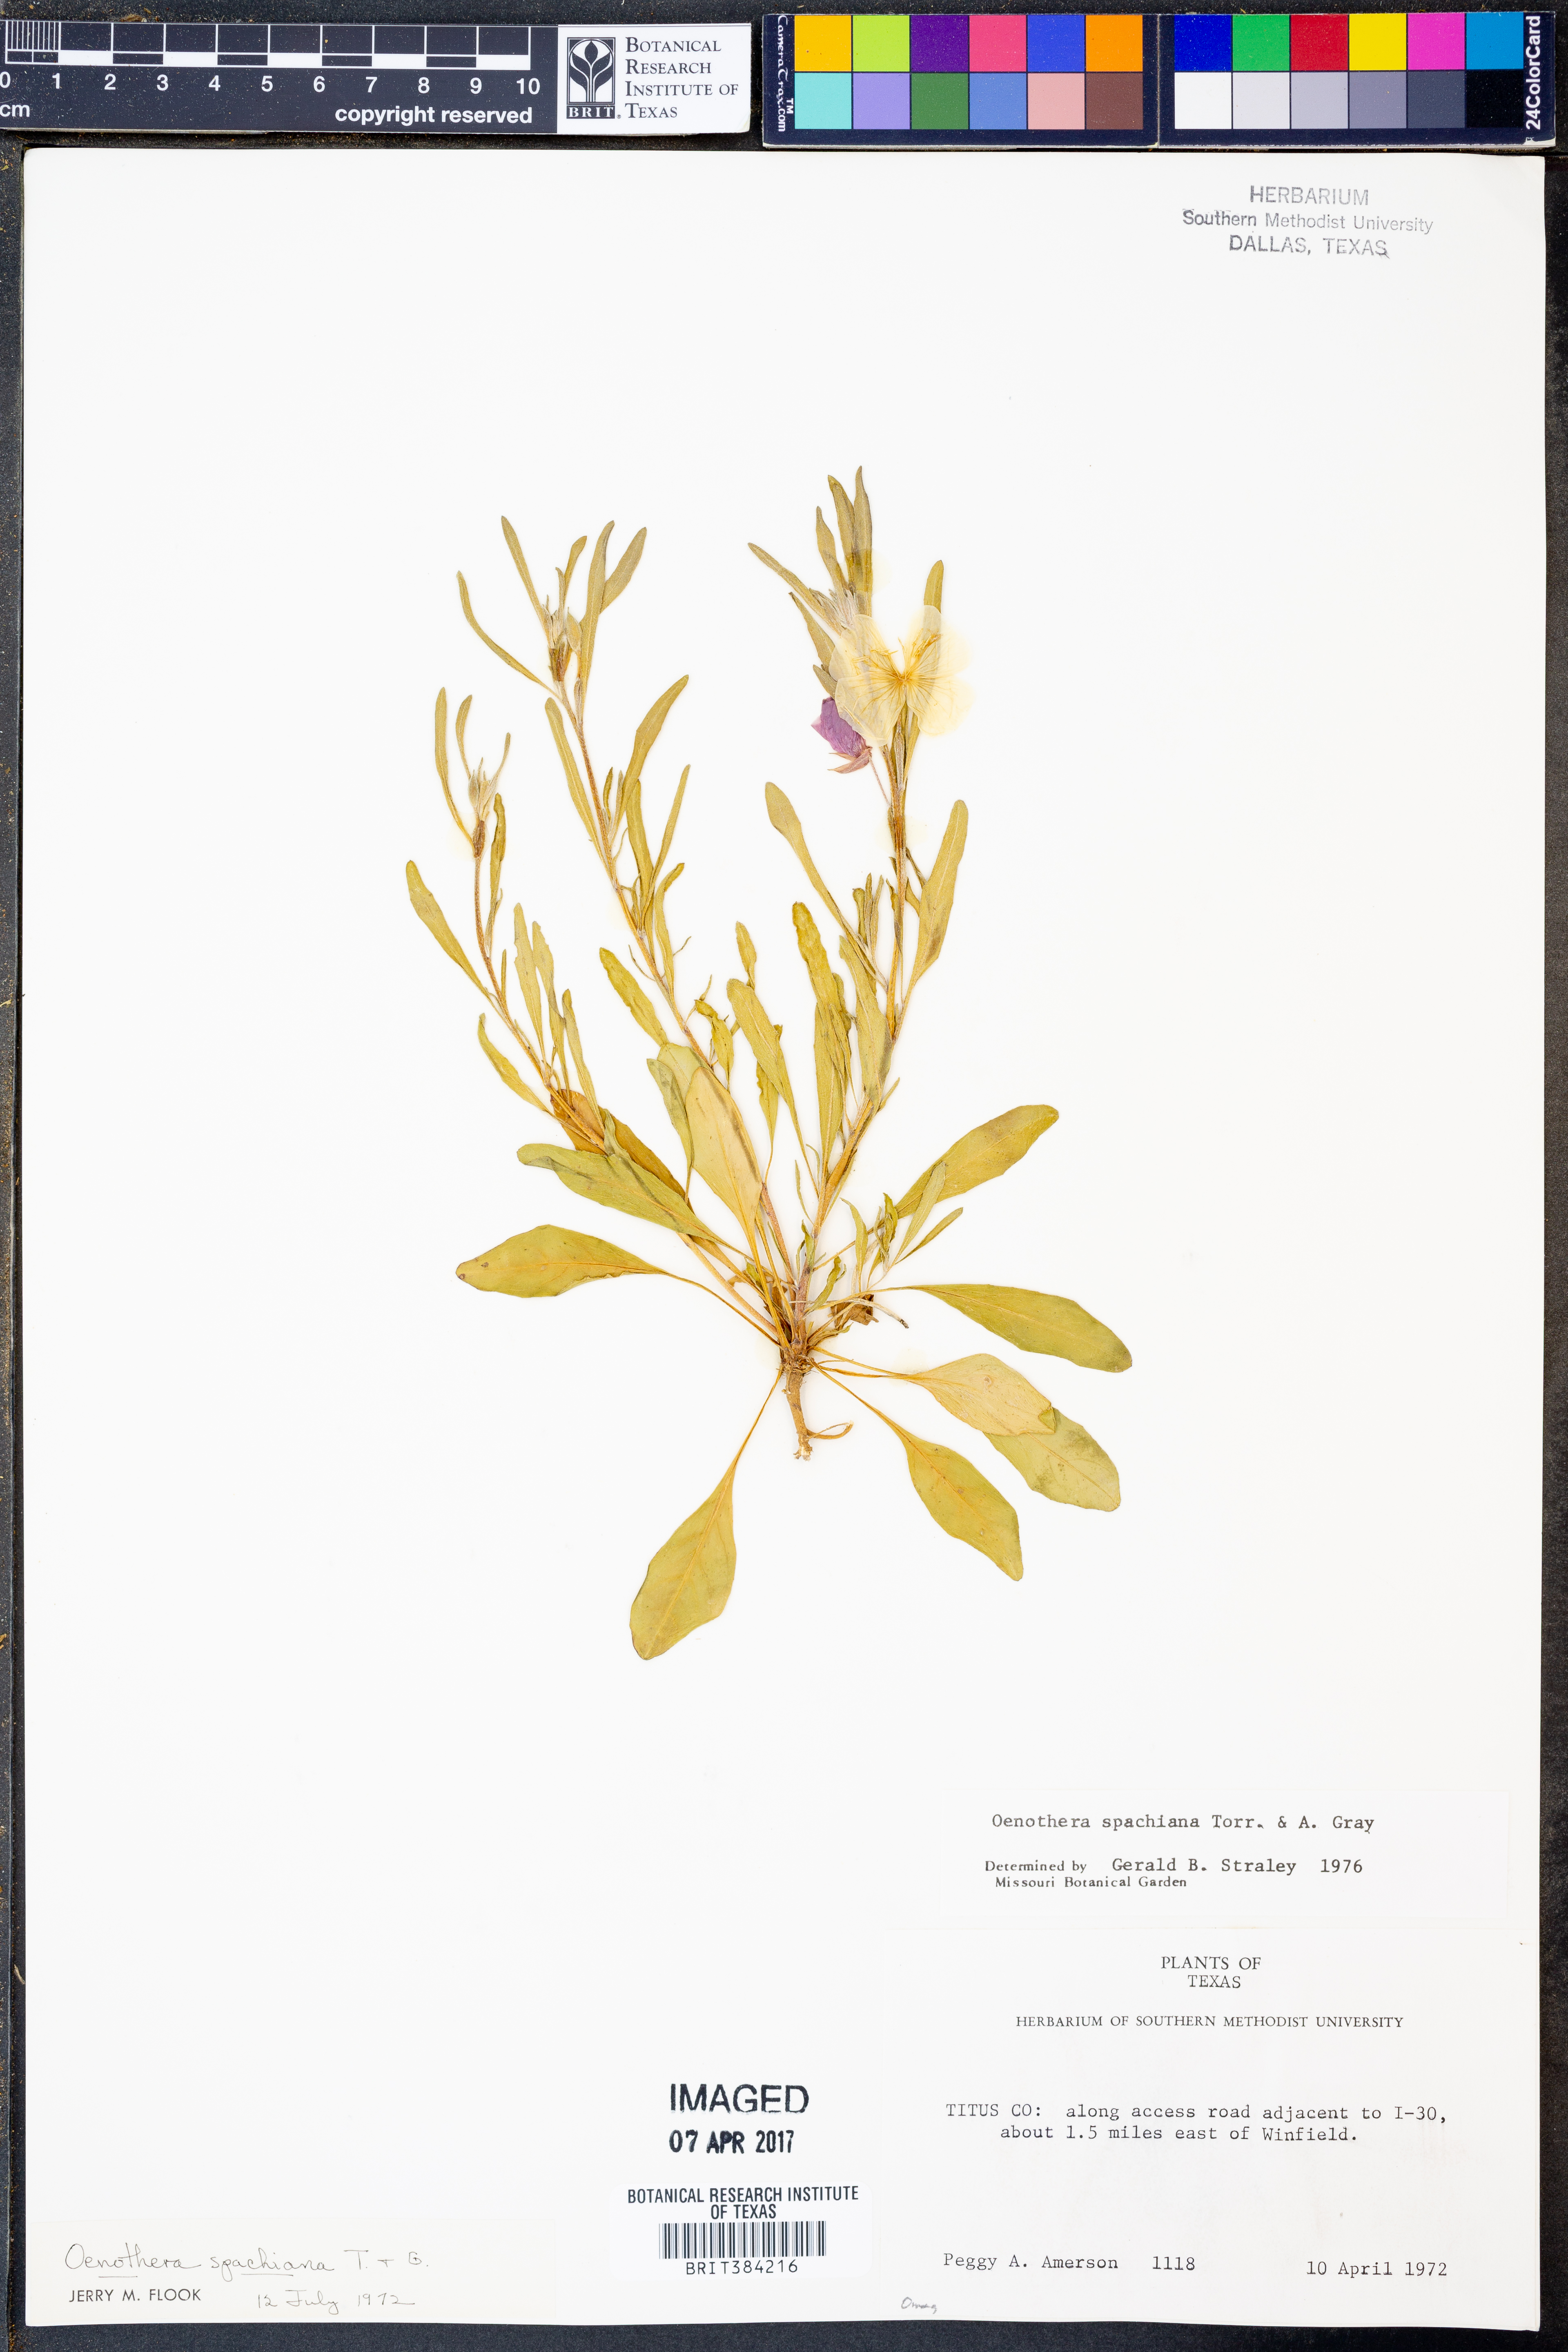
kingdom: Plantae
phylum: Tracheophyta
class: Magnoliopsida
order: Myrtales
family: Onagraceae
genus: Oenothera
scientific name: Oenothera spachiana
